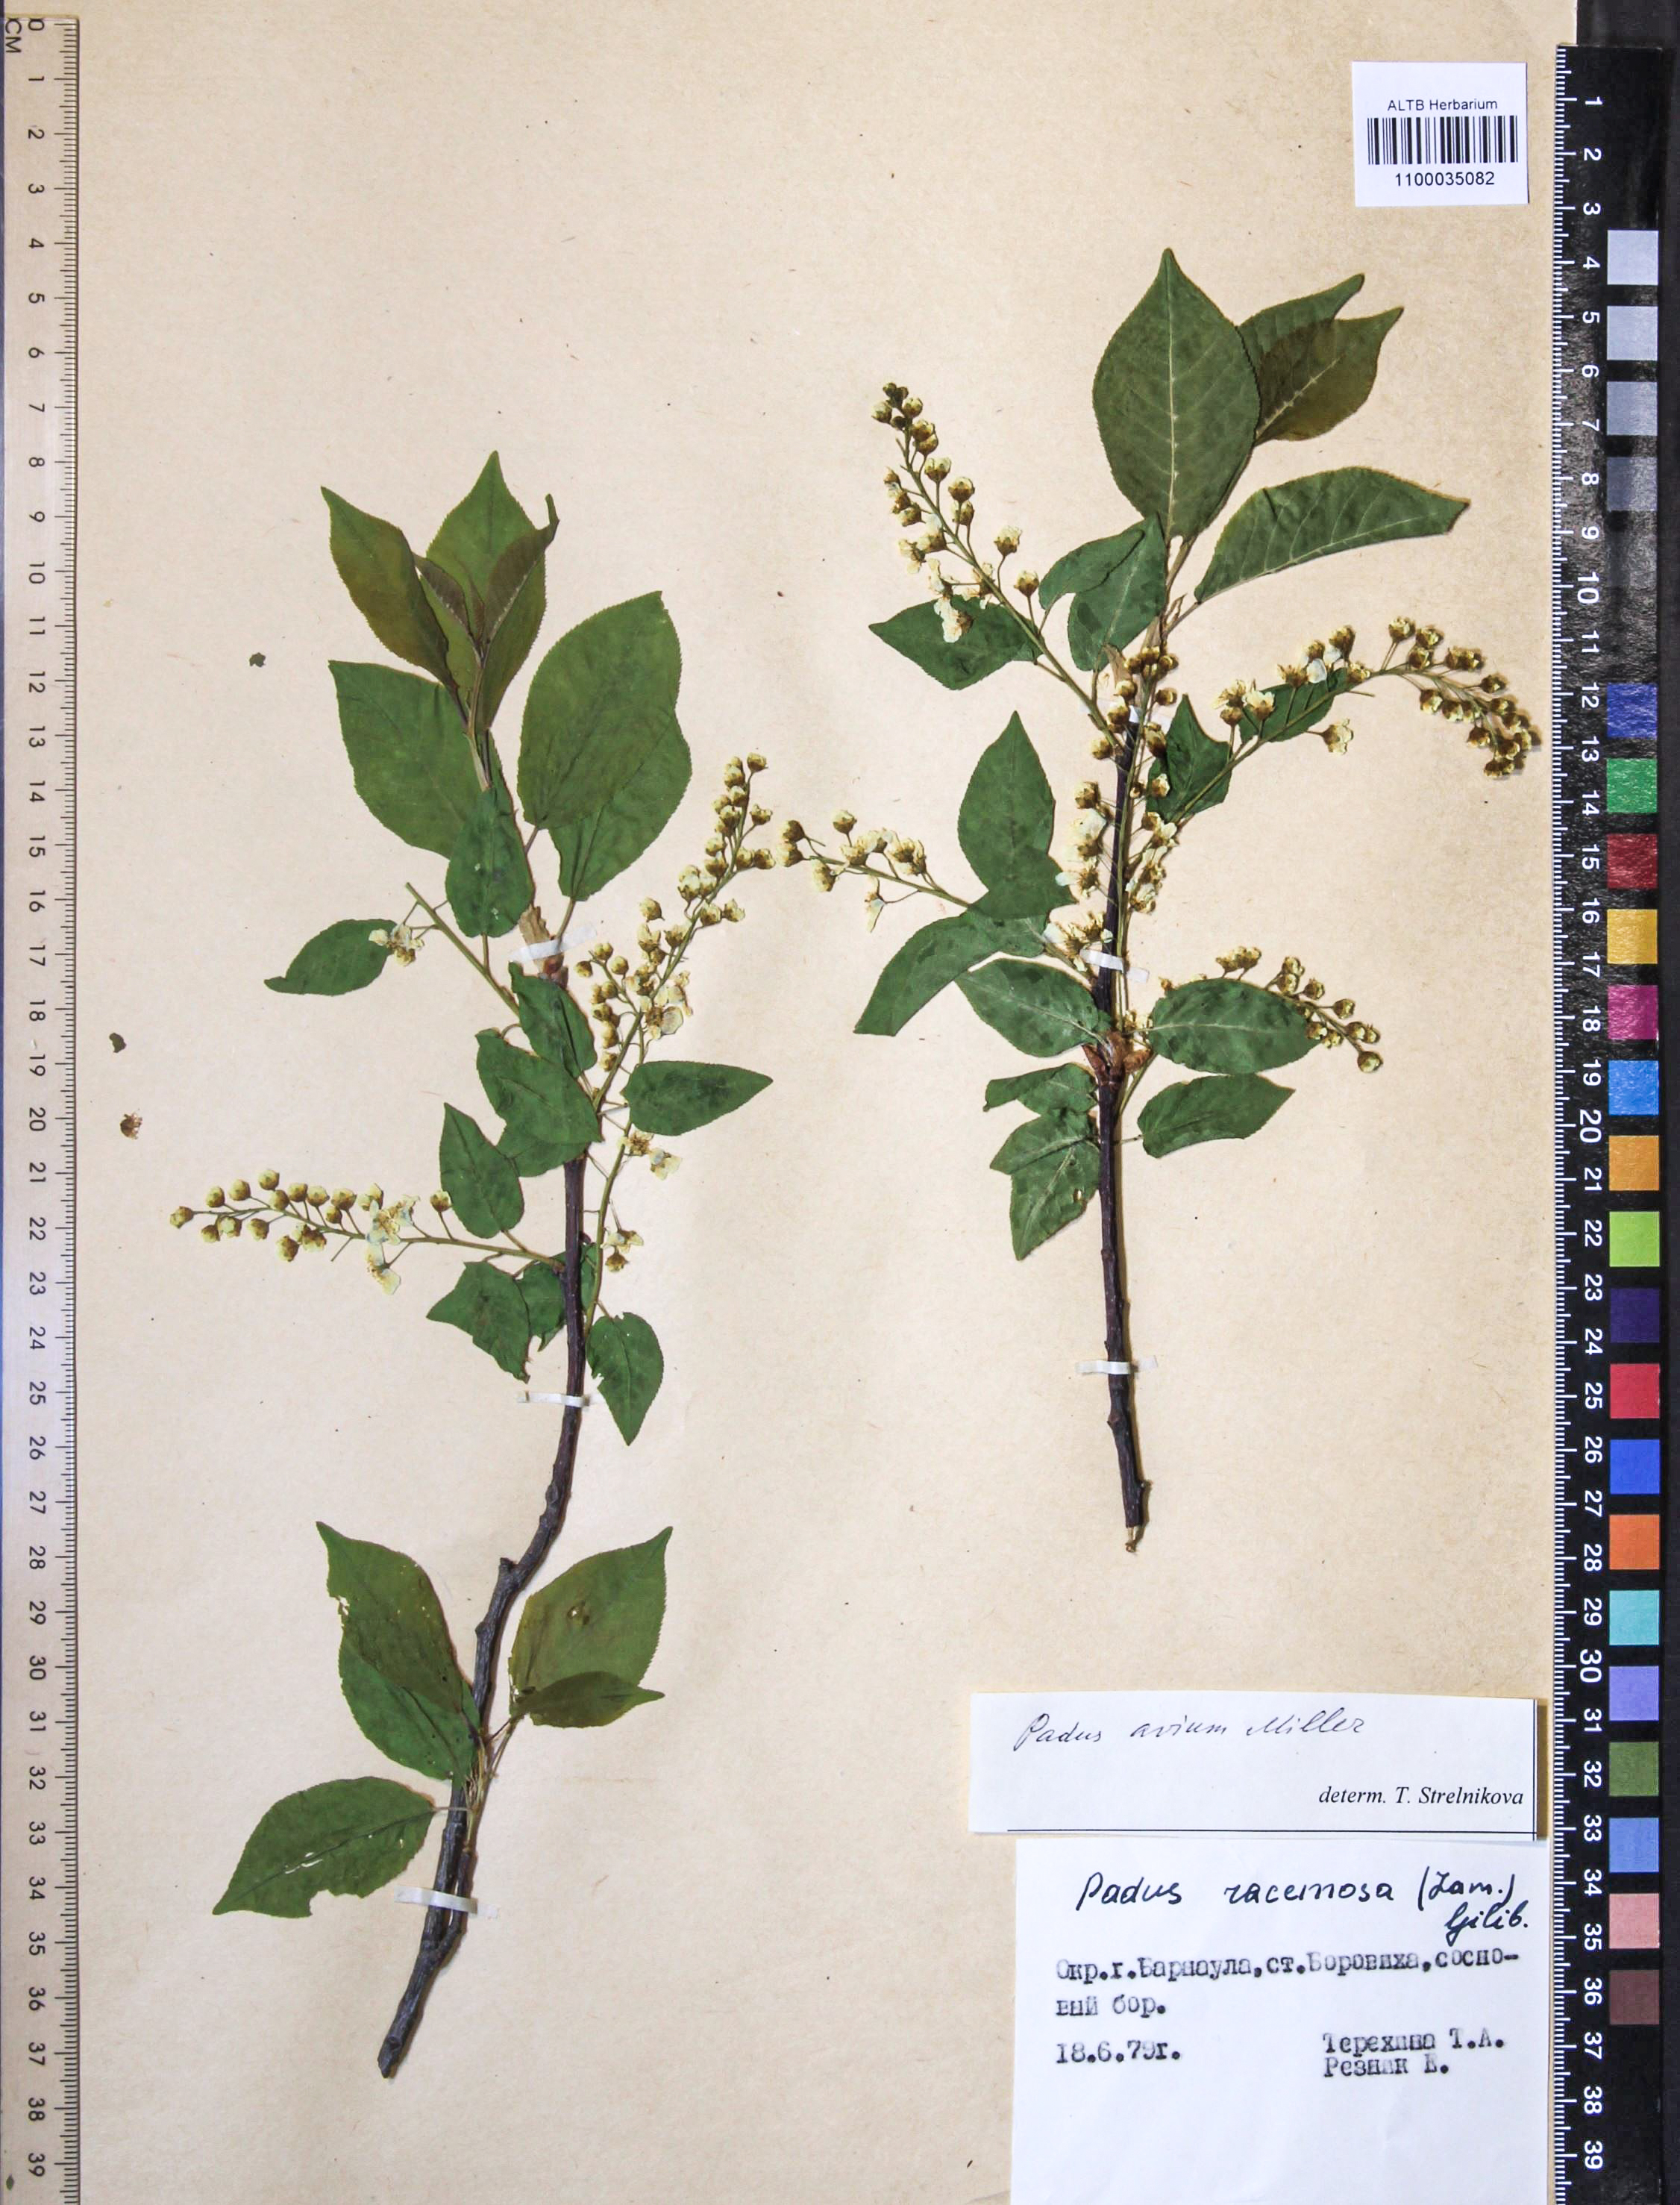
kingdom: Plantae
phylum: Tracheophyta
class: Magnoliopsida
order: Rosales
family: Rosaceae
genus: Prunus
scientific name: Prunus padus
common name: Bird cherry
